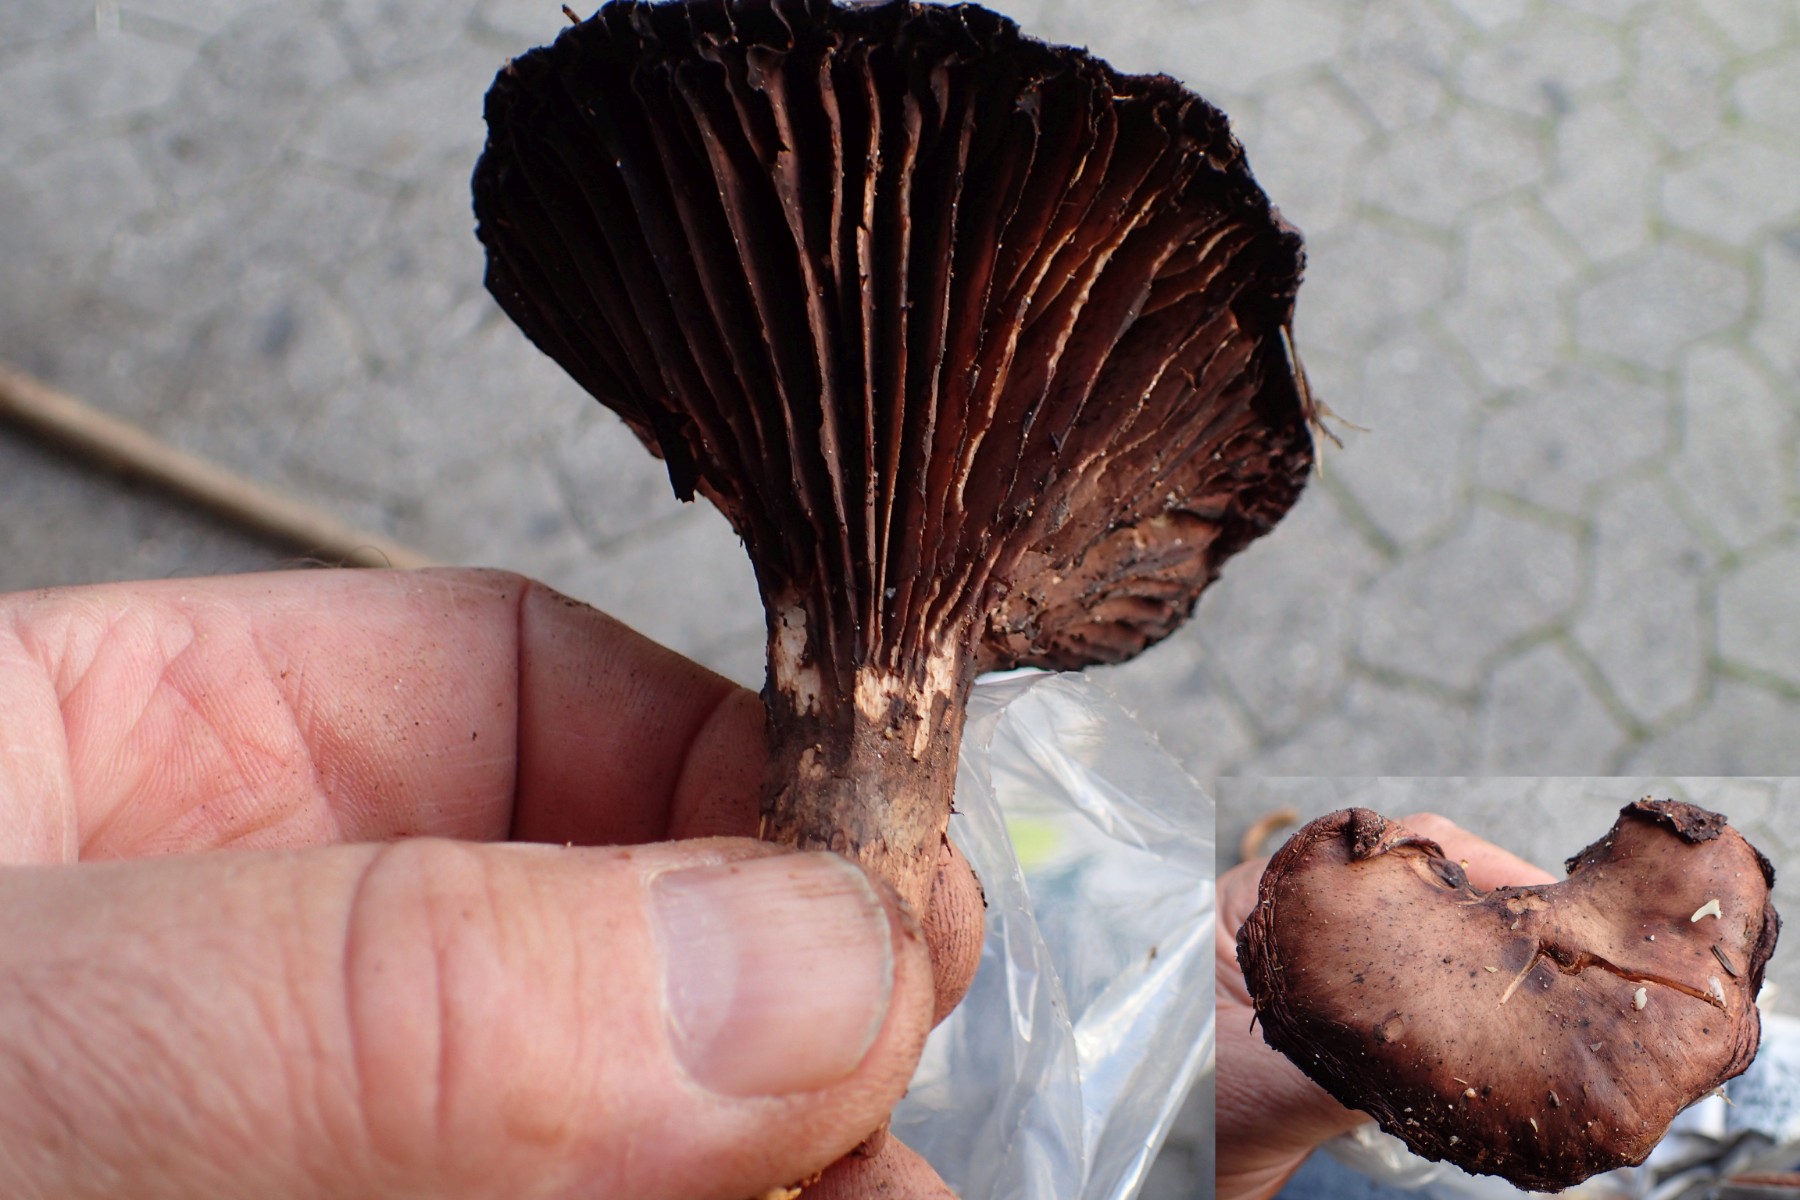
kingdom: Fungi
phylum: Basidiomycota
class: Agaricomycetes
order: Boletales
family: Gomphidiaceae
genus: Chroogomphus
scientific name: Chroogomphus rutilus
